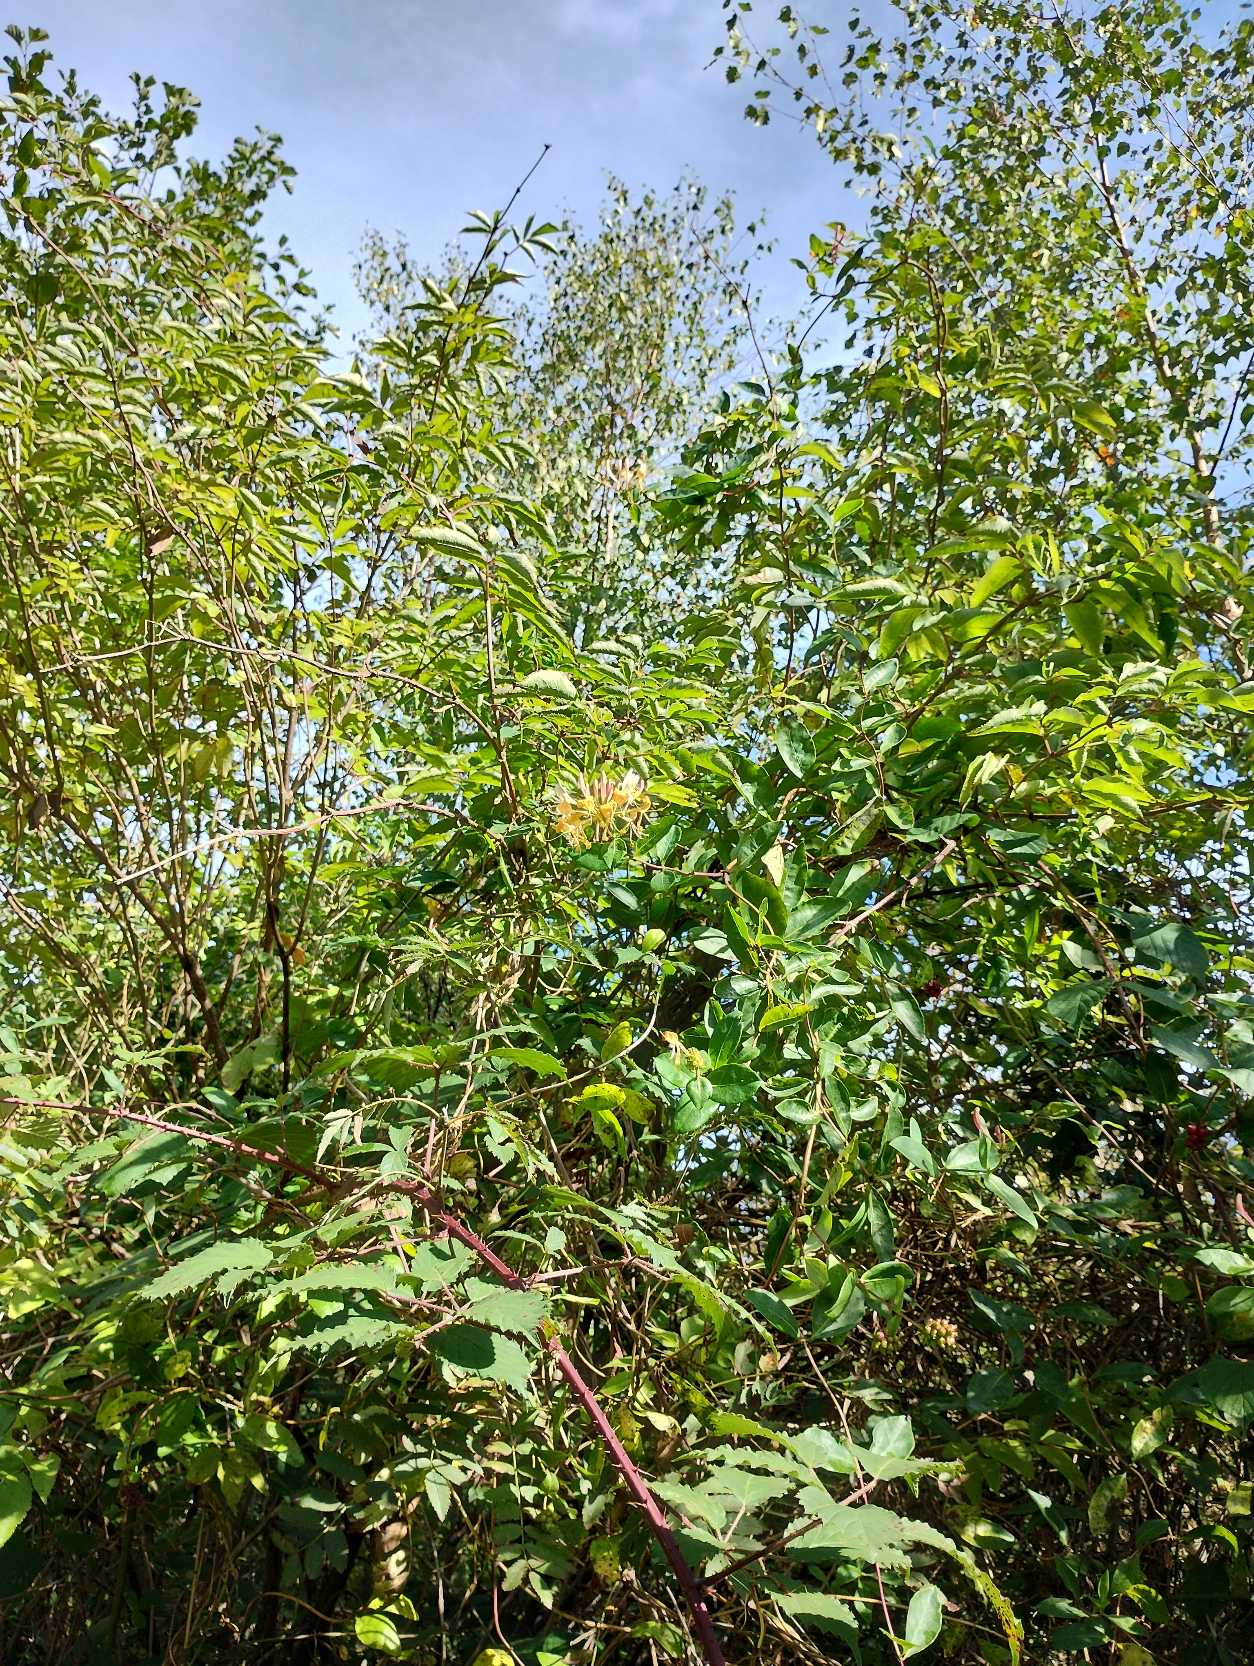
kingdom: Plantae
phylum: Tracheophyta
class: Magnoliopsida
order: Dipsacales
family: Caprifoliaceae
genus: Lonicera
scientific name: Lonicera periclymenum
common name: Almindelig gedeblad
